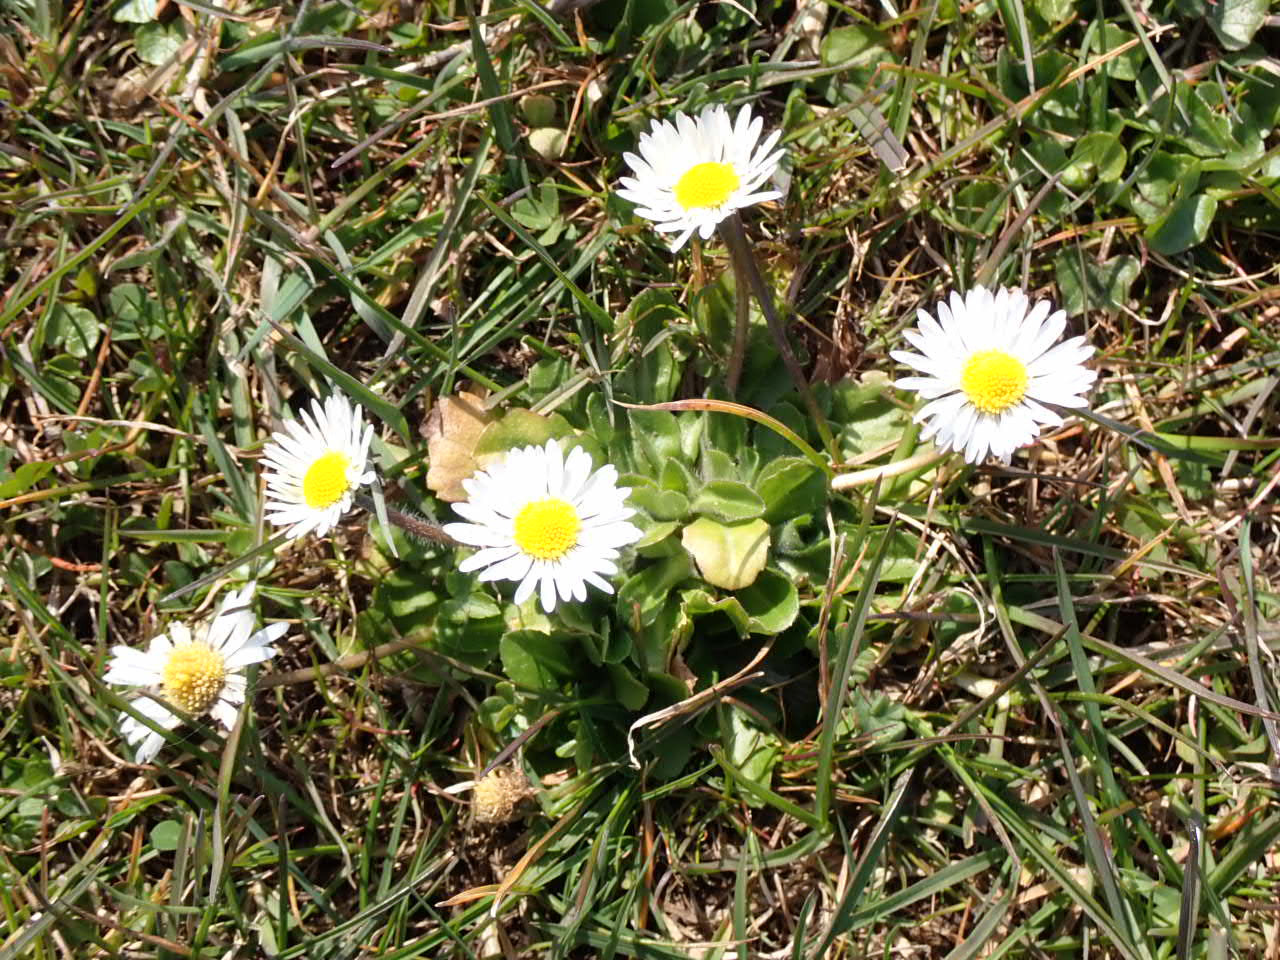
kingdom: Plantae
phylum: Tracheophyta
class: Magnoliopsida
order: Asterales
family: Asteraceae
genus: Bellis
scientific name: Bellis perennis
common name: Tusindfryd
